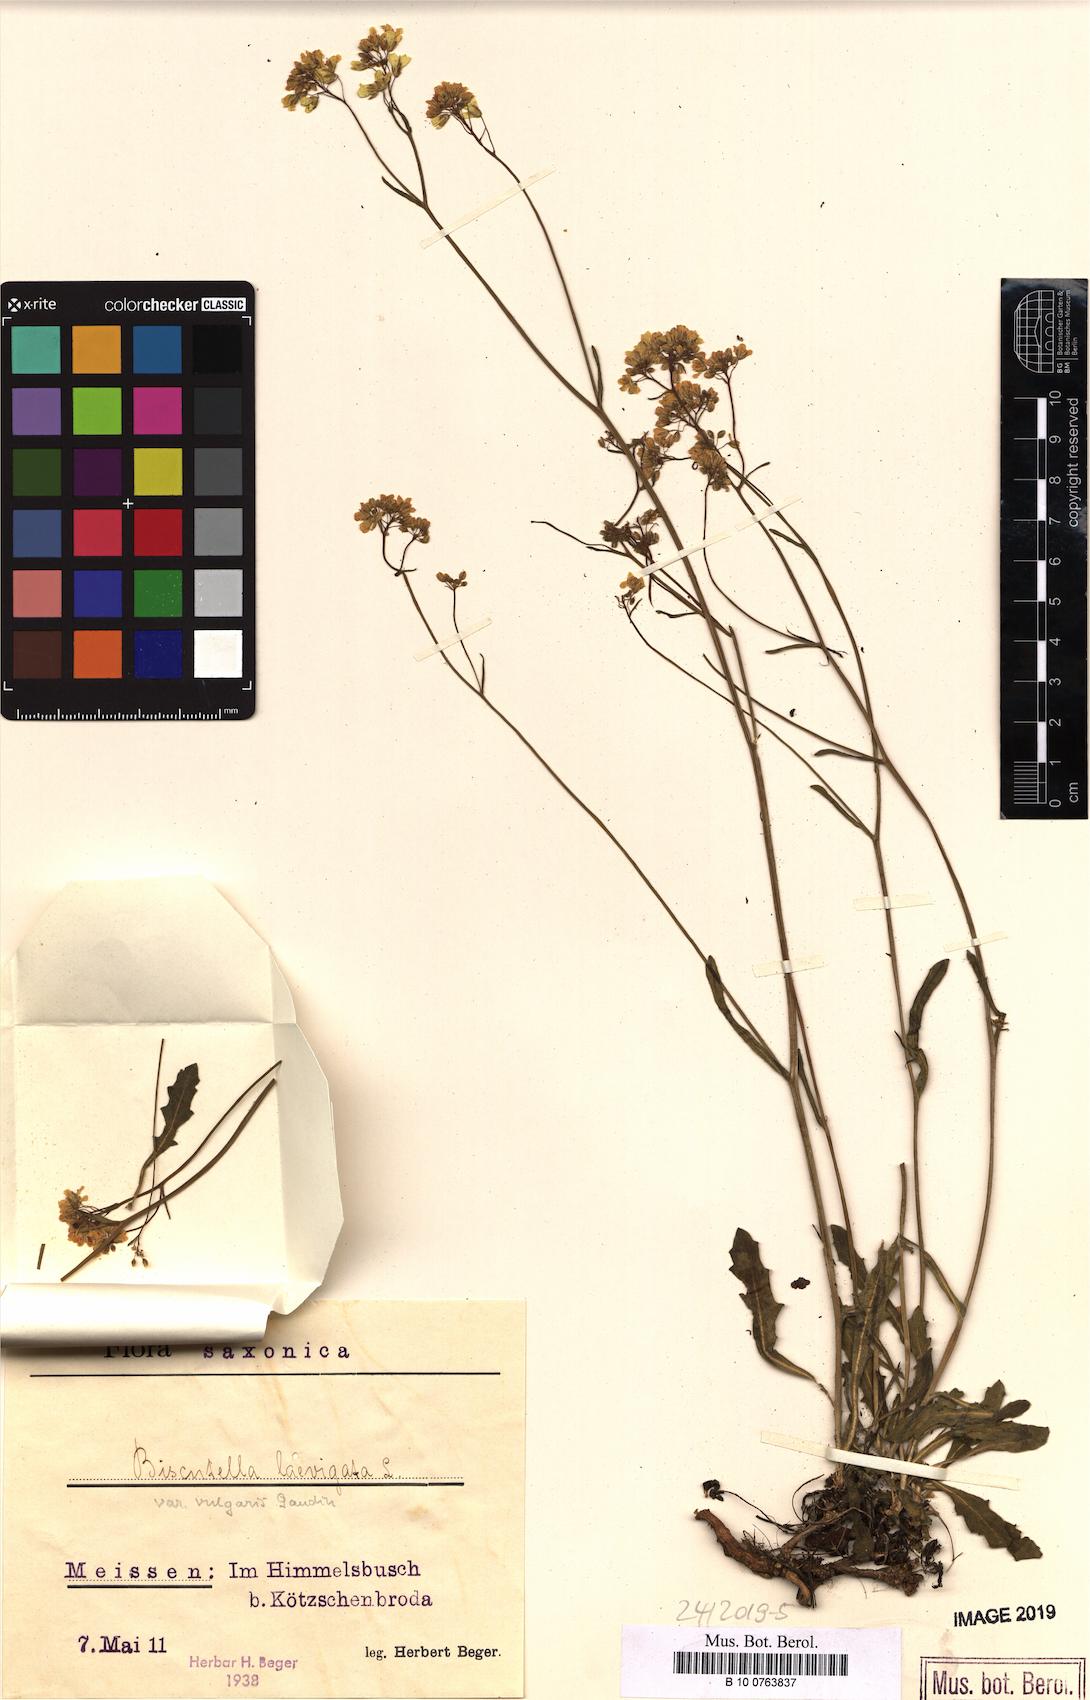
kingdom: Plantae
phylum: Tracheophyta
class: Magnoliopsida
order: Brassicales
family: Brassicaceae
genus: Biscutella
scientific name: Biscutella laevigata
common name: Buckler mustard
